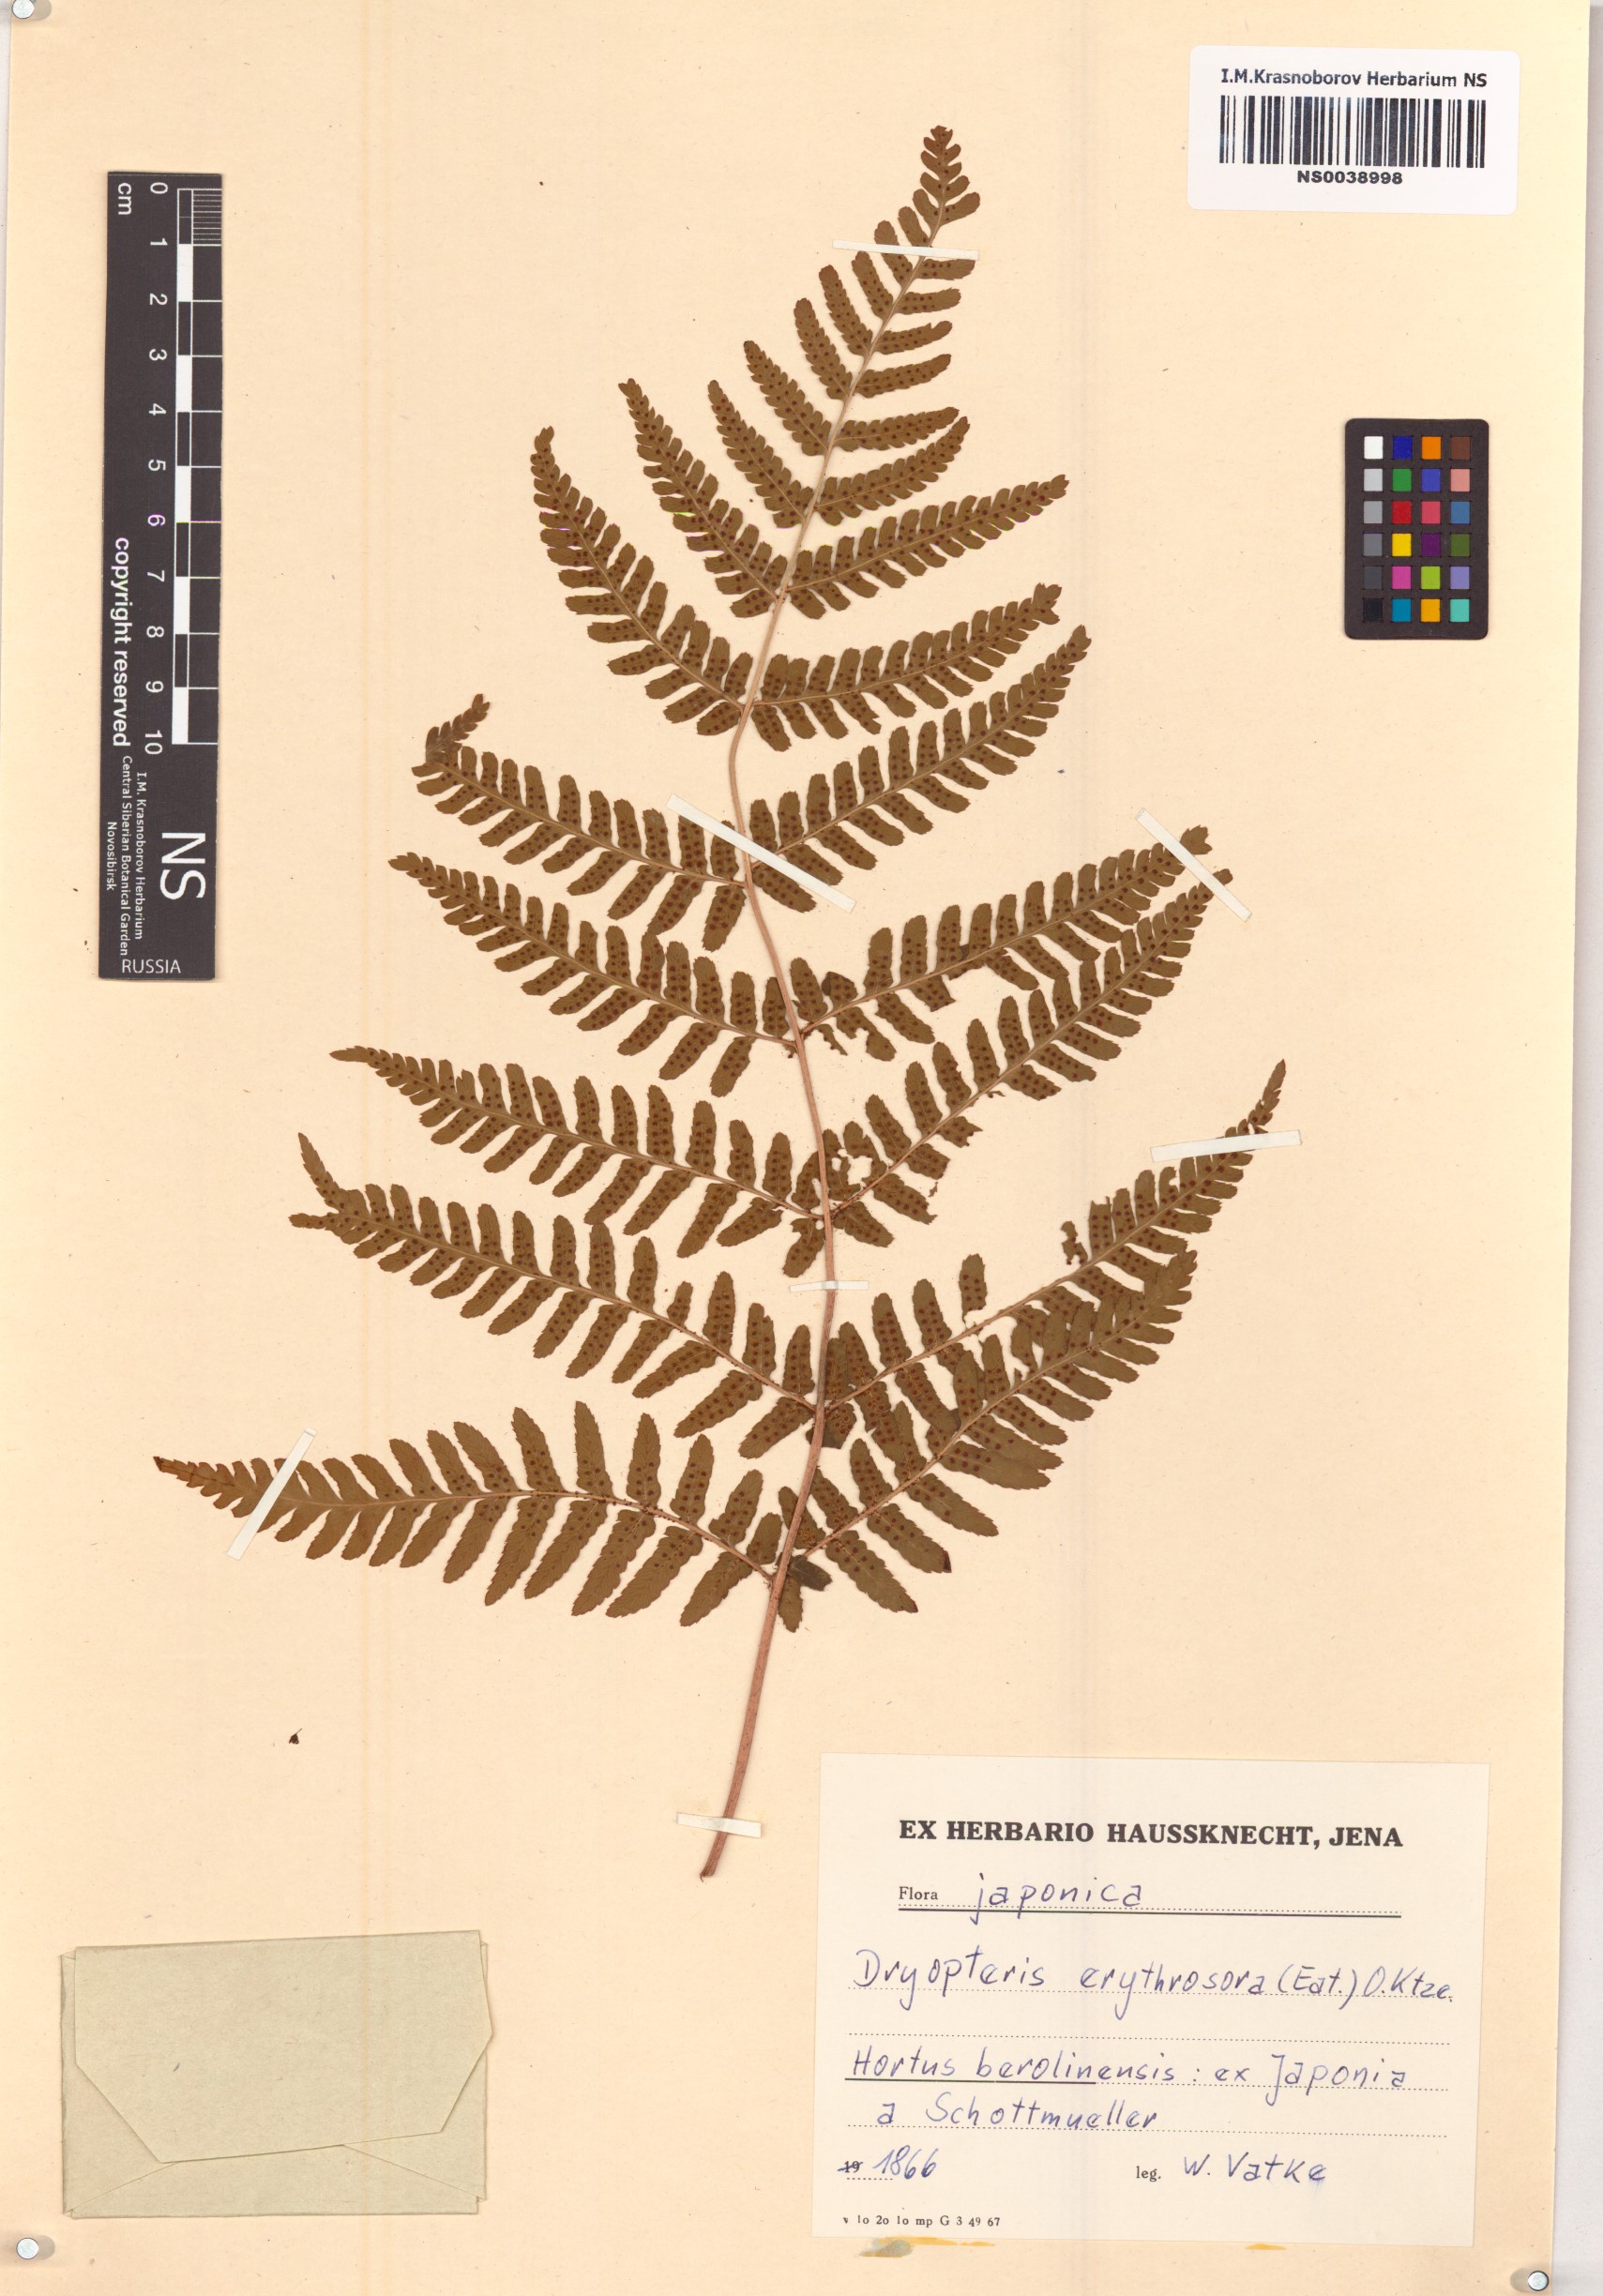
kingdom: Plantae
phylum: Tracheophyta
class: Polypodiopsida
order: Polypodiales
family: Dryopteridaceae
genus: Dryopteris
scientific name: Dryopteris erythrosora
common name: Autumn fern
